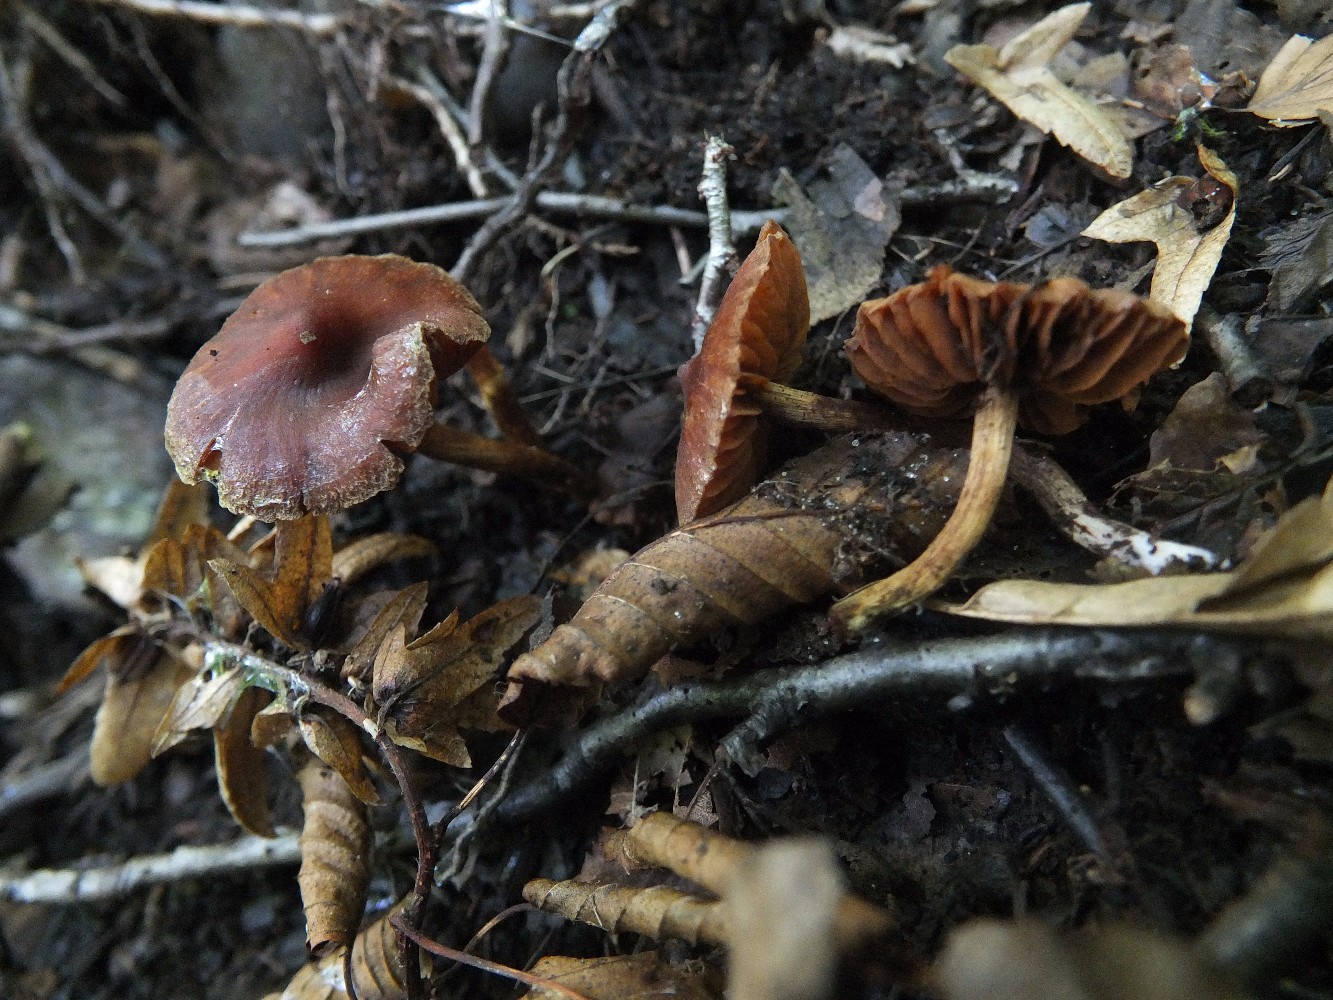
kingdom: Fungi
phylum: Basidiomycota
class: Agaricomycetes
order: Agaricales
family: Cortinariaceae
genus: Cortinarius
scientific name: Cortinarius
